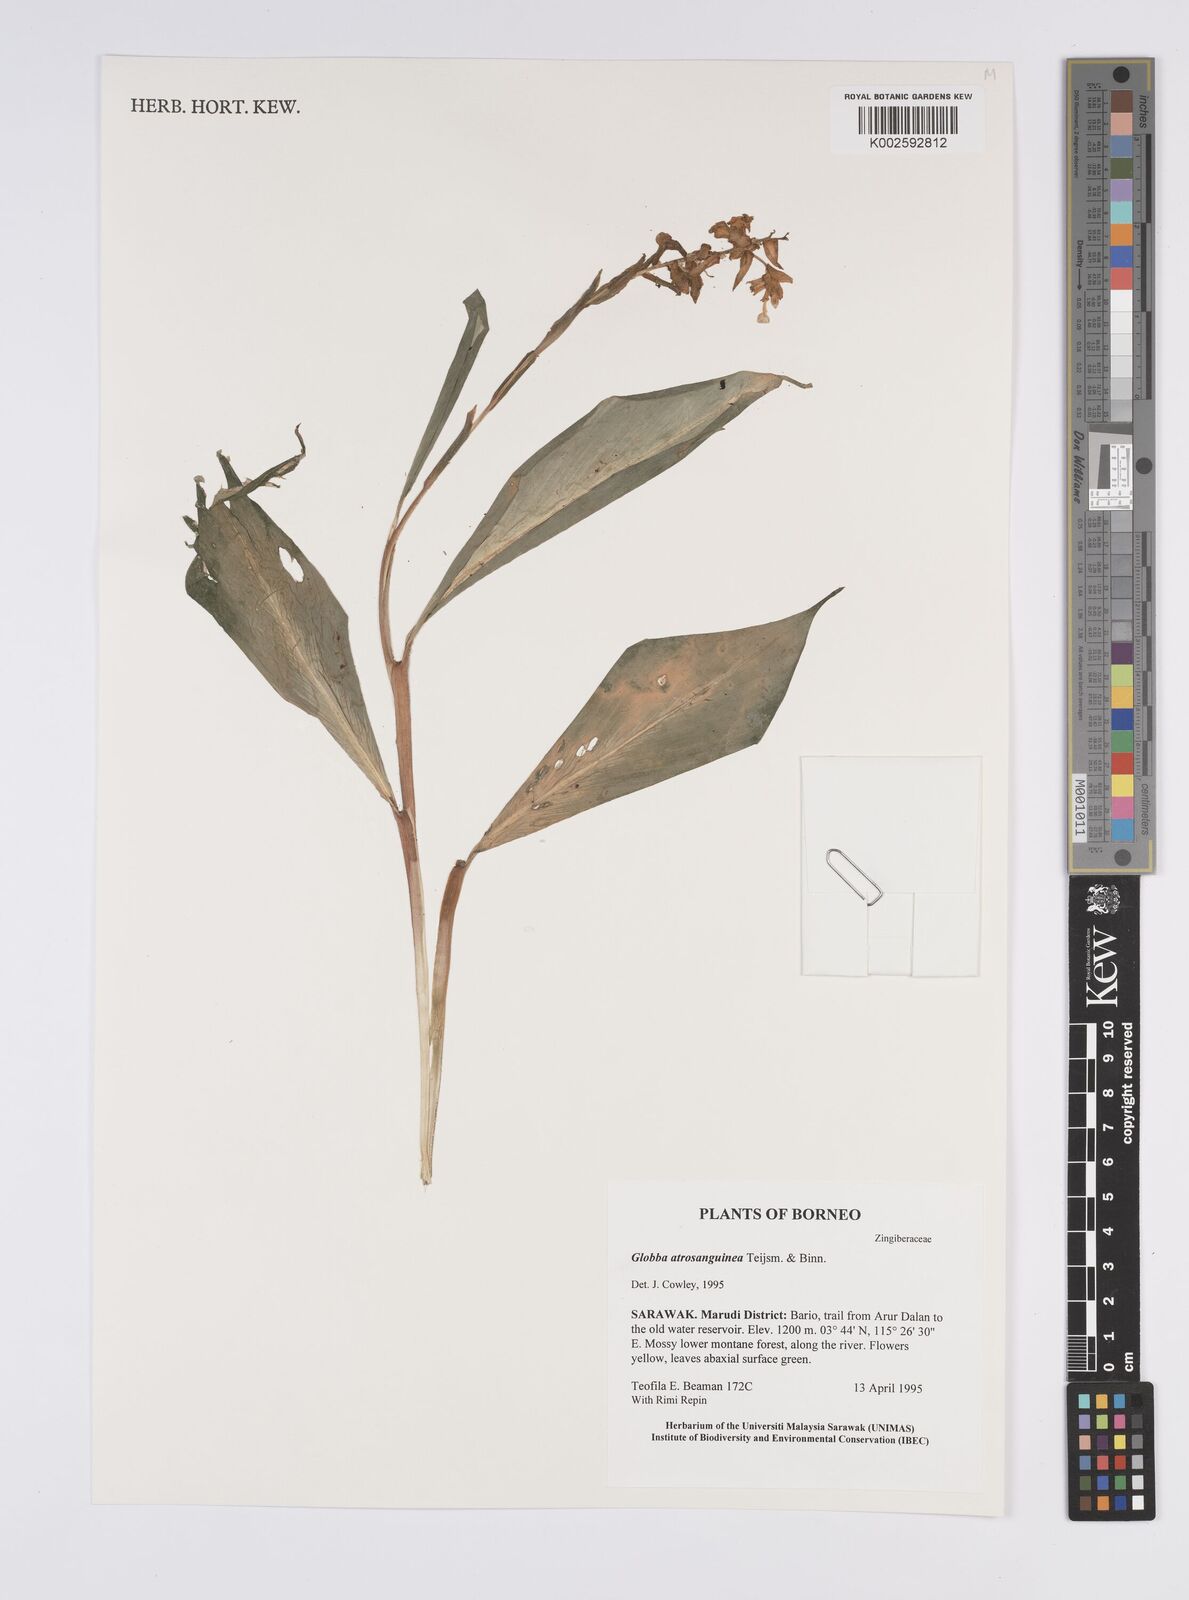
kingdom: Plantae
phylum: Tracheophyta
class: Liliopsida
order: Zingiberales
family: Zingiberaceae
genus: Globba
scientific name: Globba atrosanguinea
